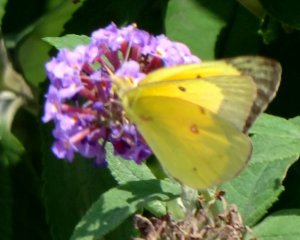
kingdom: Animalia
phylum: Arthropoda
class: Insecta
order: Lepidoptera
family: Pieridae
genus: Colias
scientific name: Colias eurytheme
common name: Orange Sulphur
